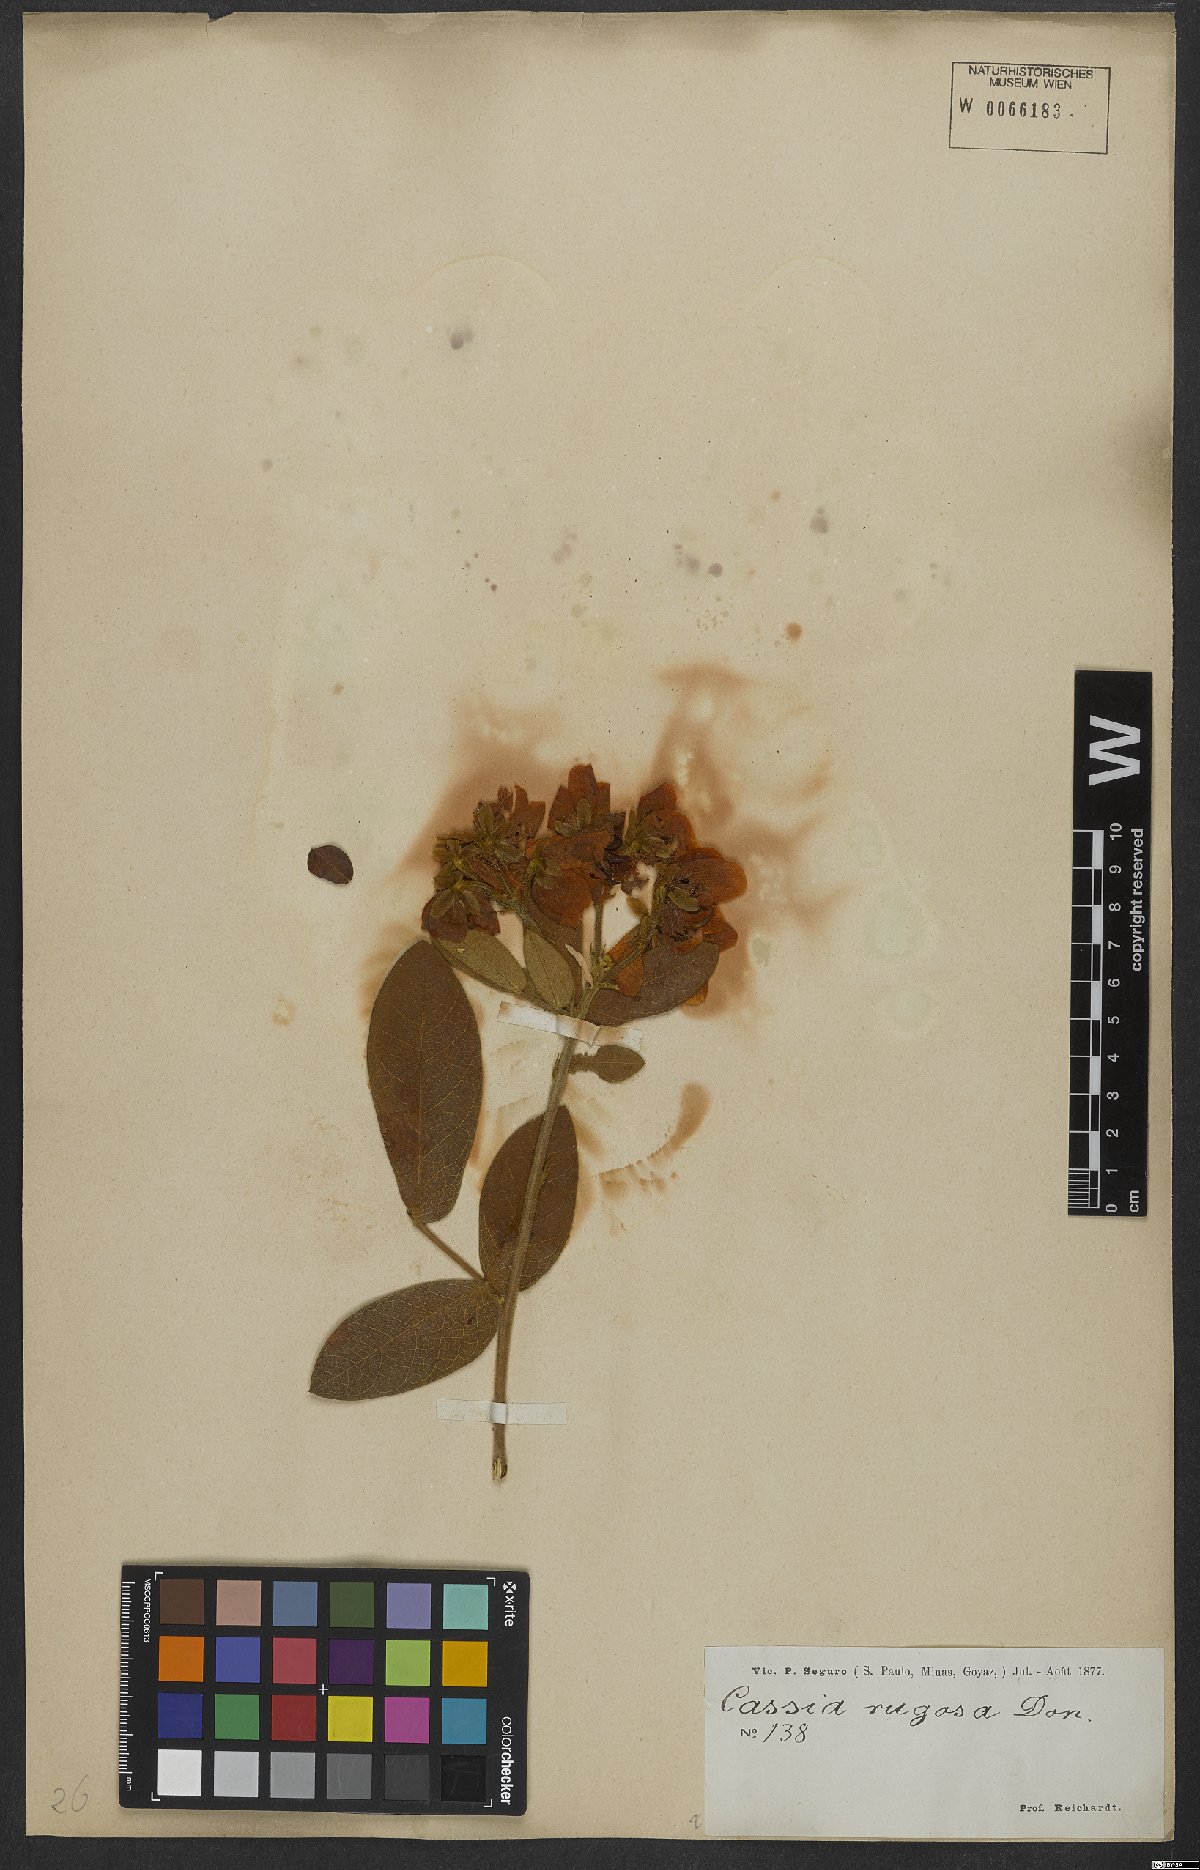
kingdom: Plantae
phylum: Tracheophyta
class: Magnoliopsida
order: Fabales
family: Fabaceae
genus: Senna
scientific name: Senna rugosa
